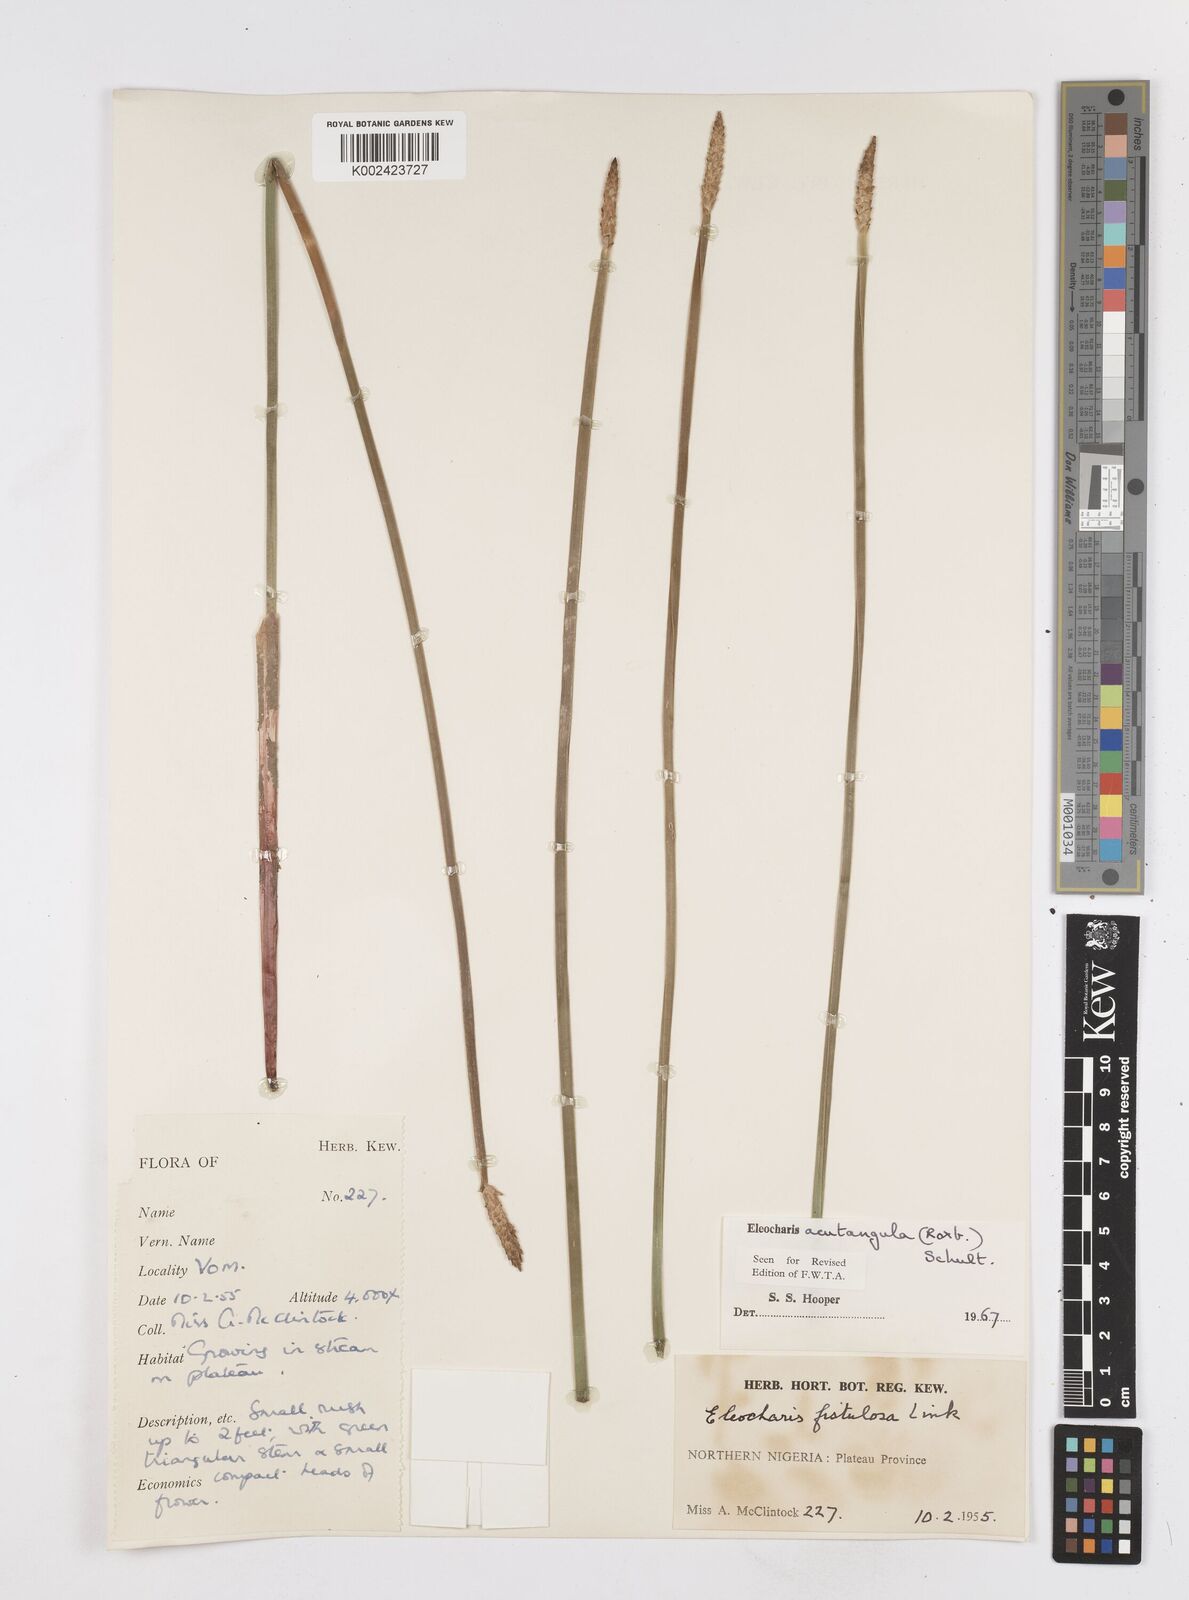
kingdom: Plantae
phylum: Tracheophyta
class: Liliopsida
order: Poales
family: Cyperaceae
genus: Eleocharis
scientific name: Eleocharis acutangula
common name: Acute spikerush
